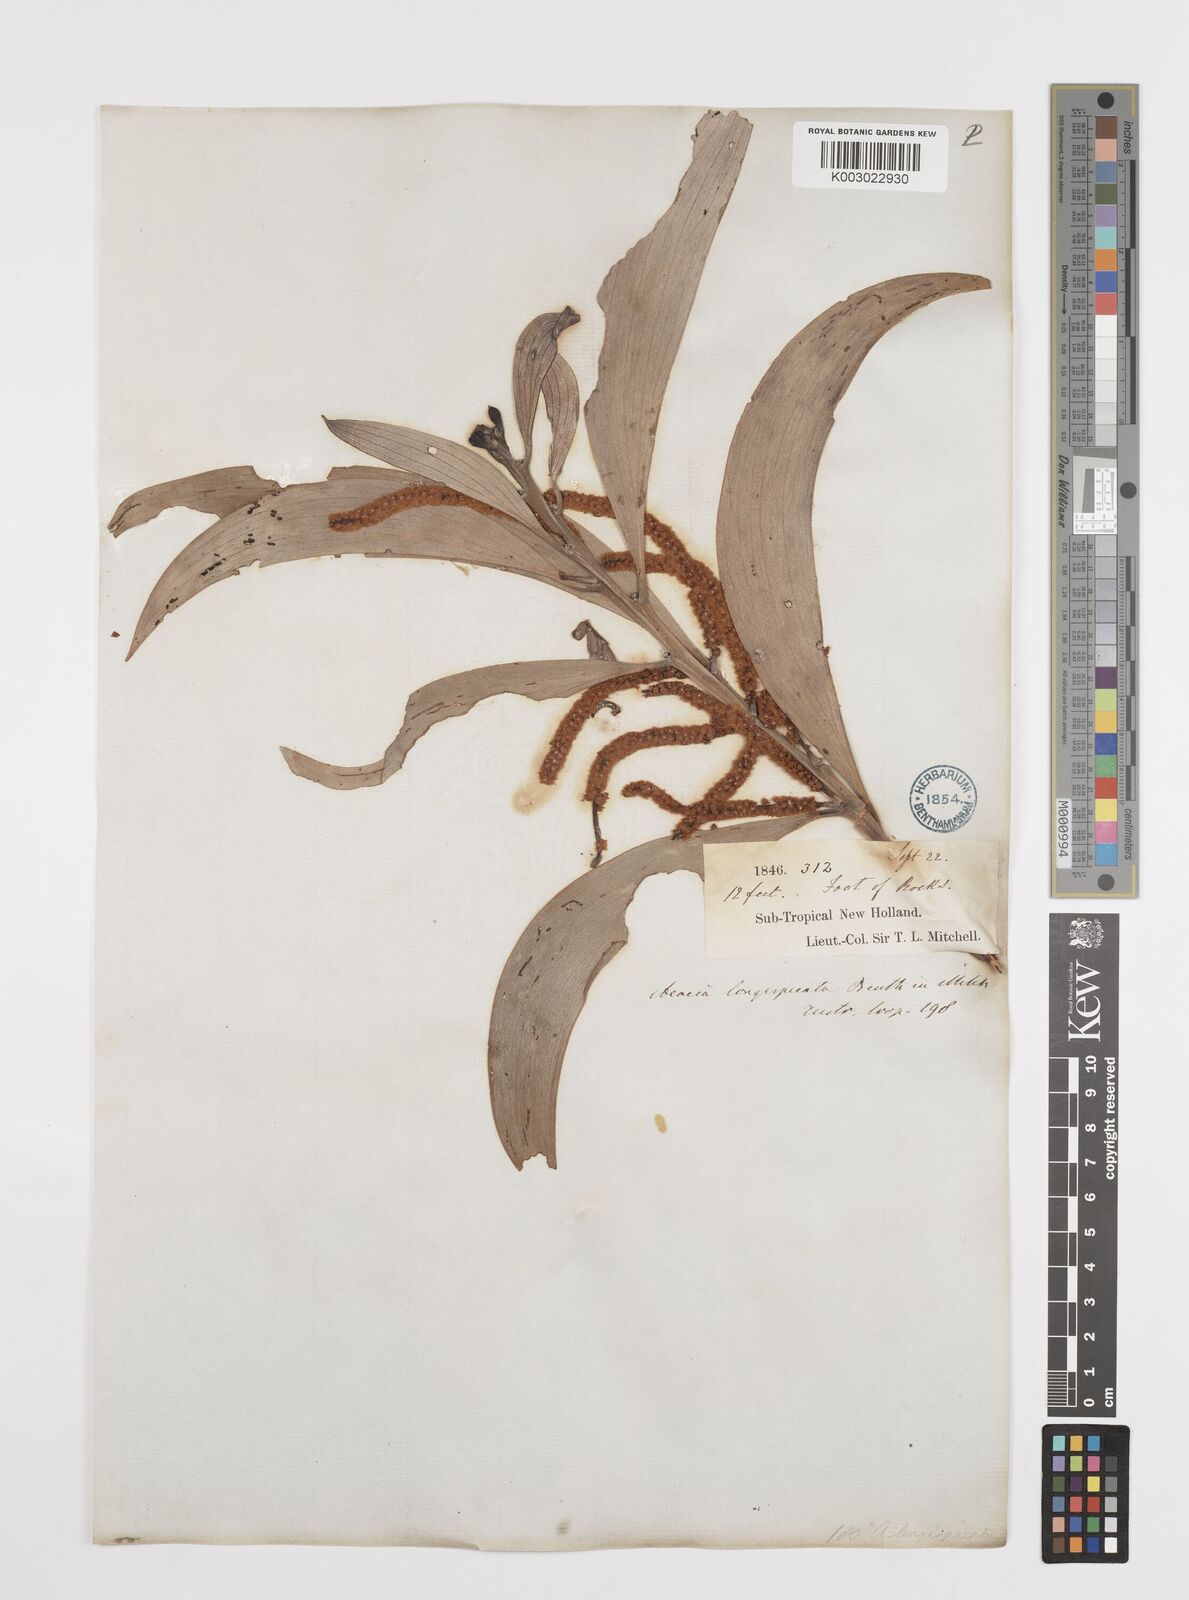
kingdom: Plantae
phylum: Tracheophyta
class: Magnoliopsida
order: Fabales
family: Fabaceae
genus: Acacia
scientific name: Acacia longispicata
